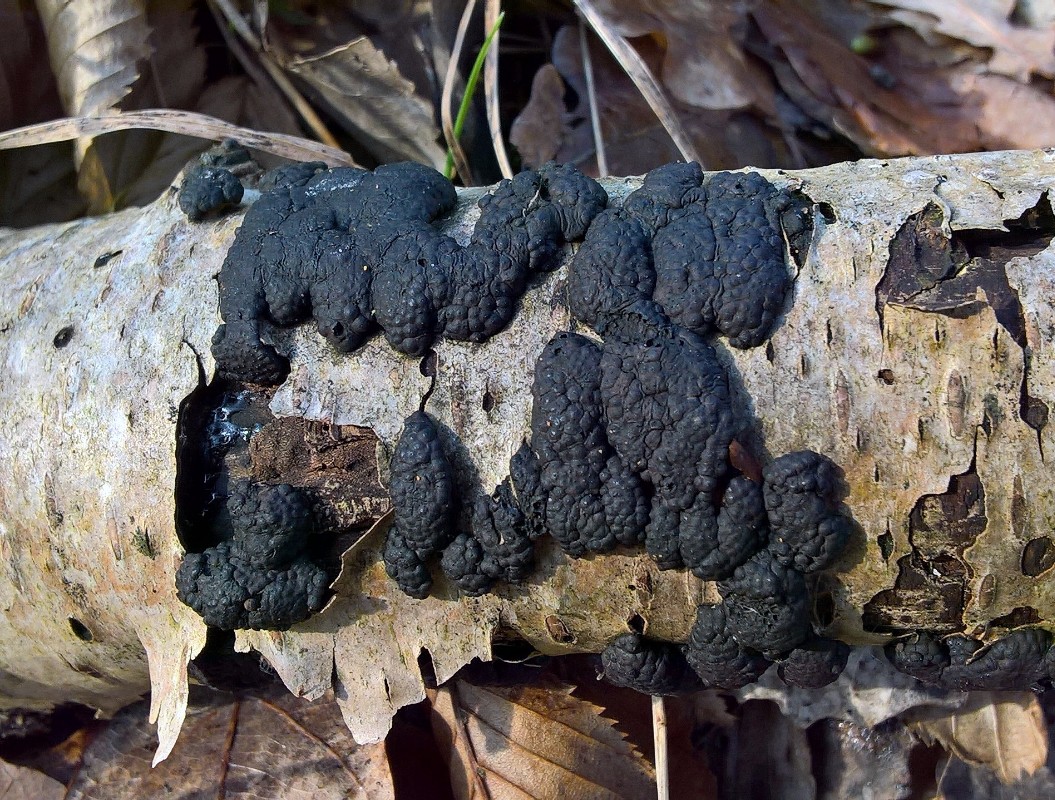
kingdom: Fungi
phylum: Ascomycota
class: Sordariomycetes
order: Xylariales
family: Hypoxylaceae
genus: Jackrogersella
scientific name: Jackrogersella multiformis
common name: foranderlig kulbær
